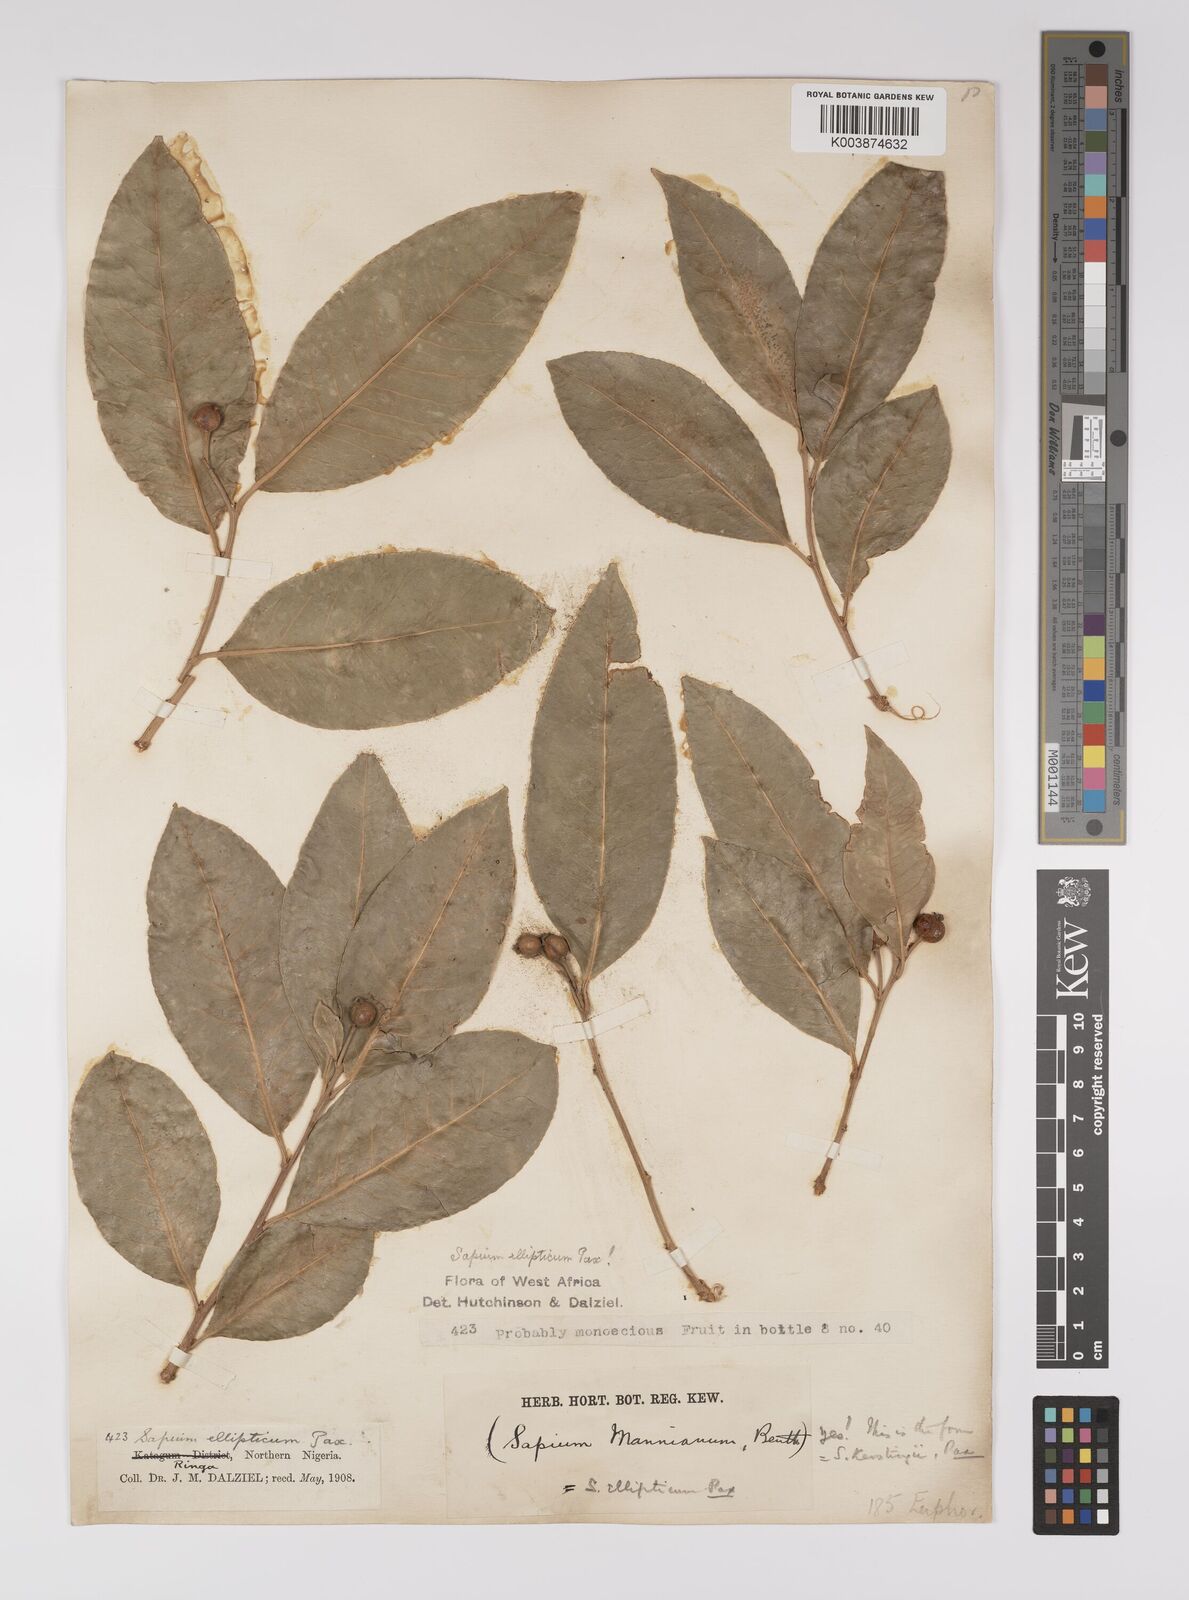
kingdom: Plantae
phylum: Tracheophyta
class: Magnoliopsida
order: Malpighiales
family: Euphorbiaceae
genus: Shirakiopsis
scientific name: Shirakiopsis elliptica
